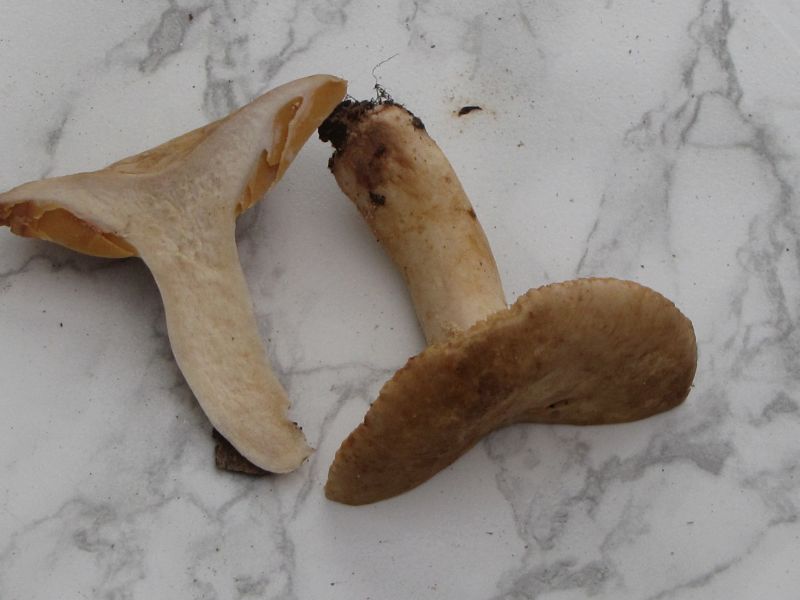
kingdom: Fungi
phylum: Basidiomycota
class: Agaricomycetes
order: Russulales
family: Russulaceae
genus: Lactarius
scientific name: Lactarius ruginosus
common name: gråbrun mælkehat
